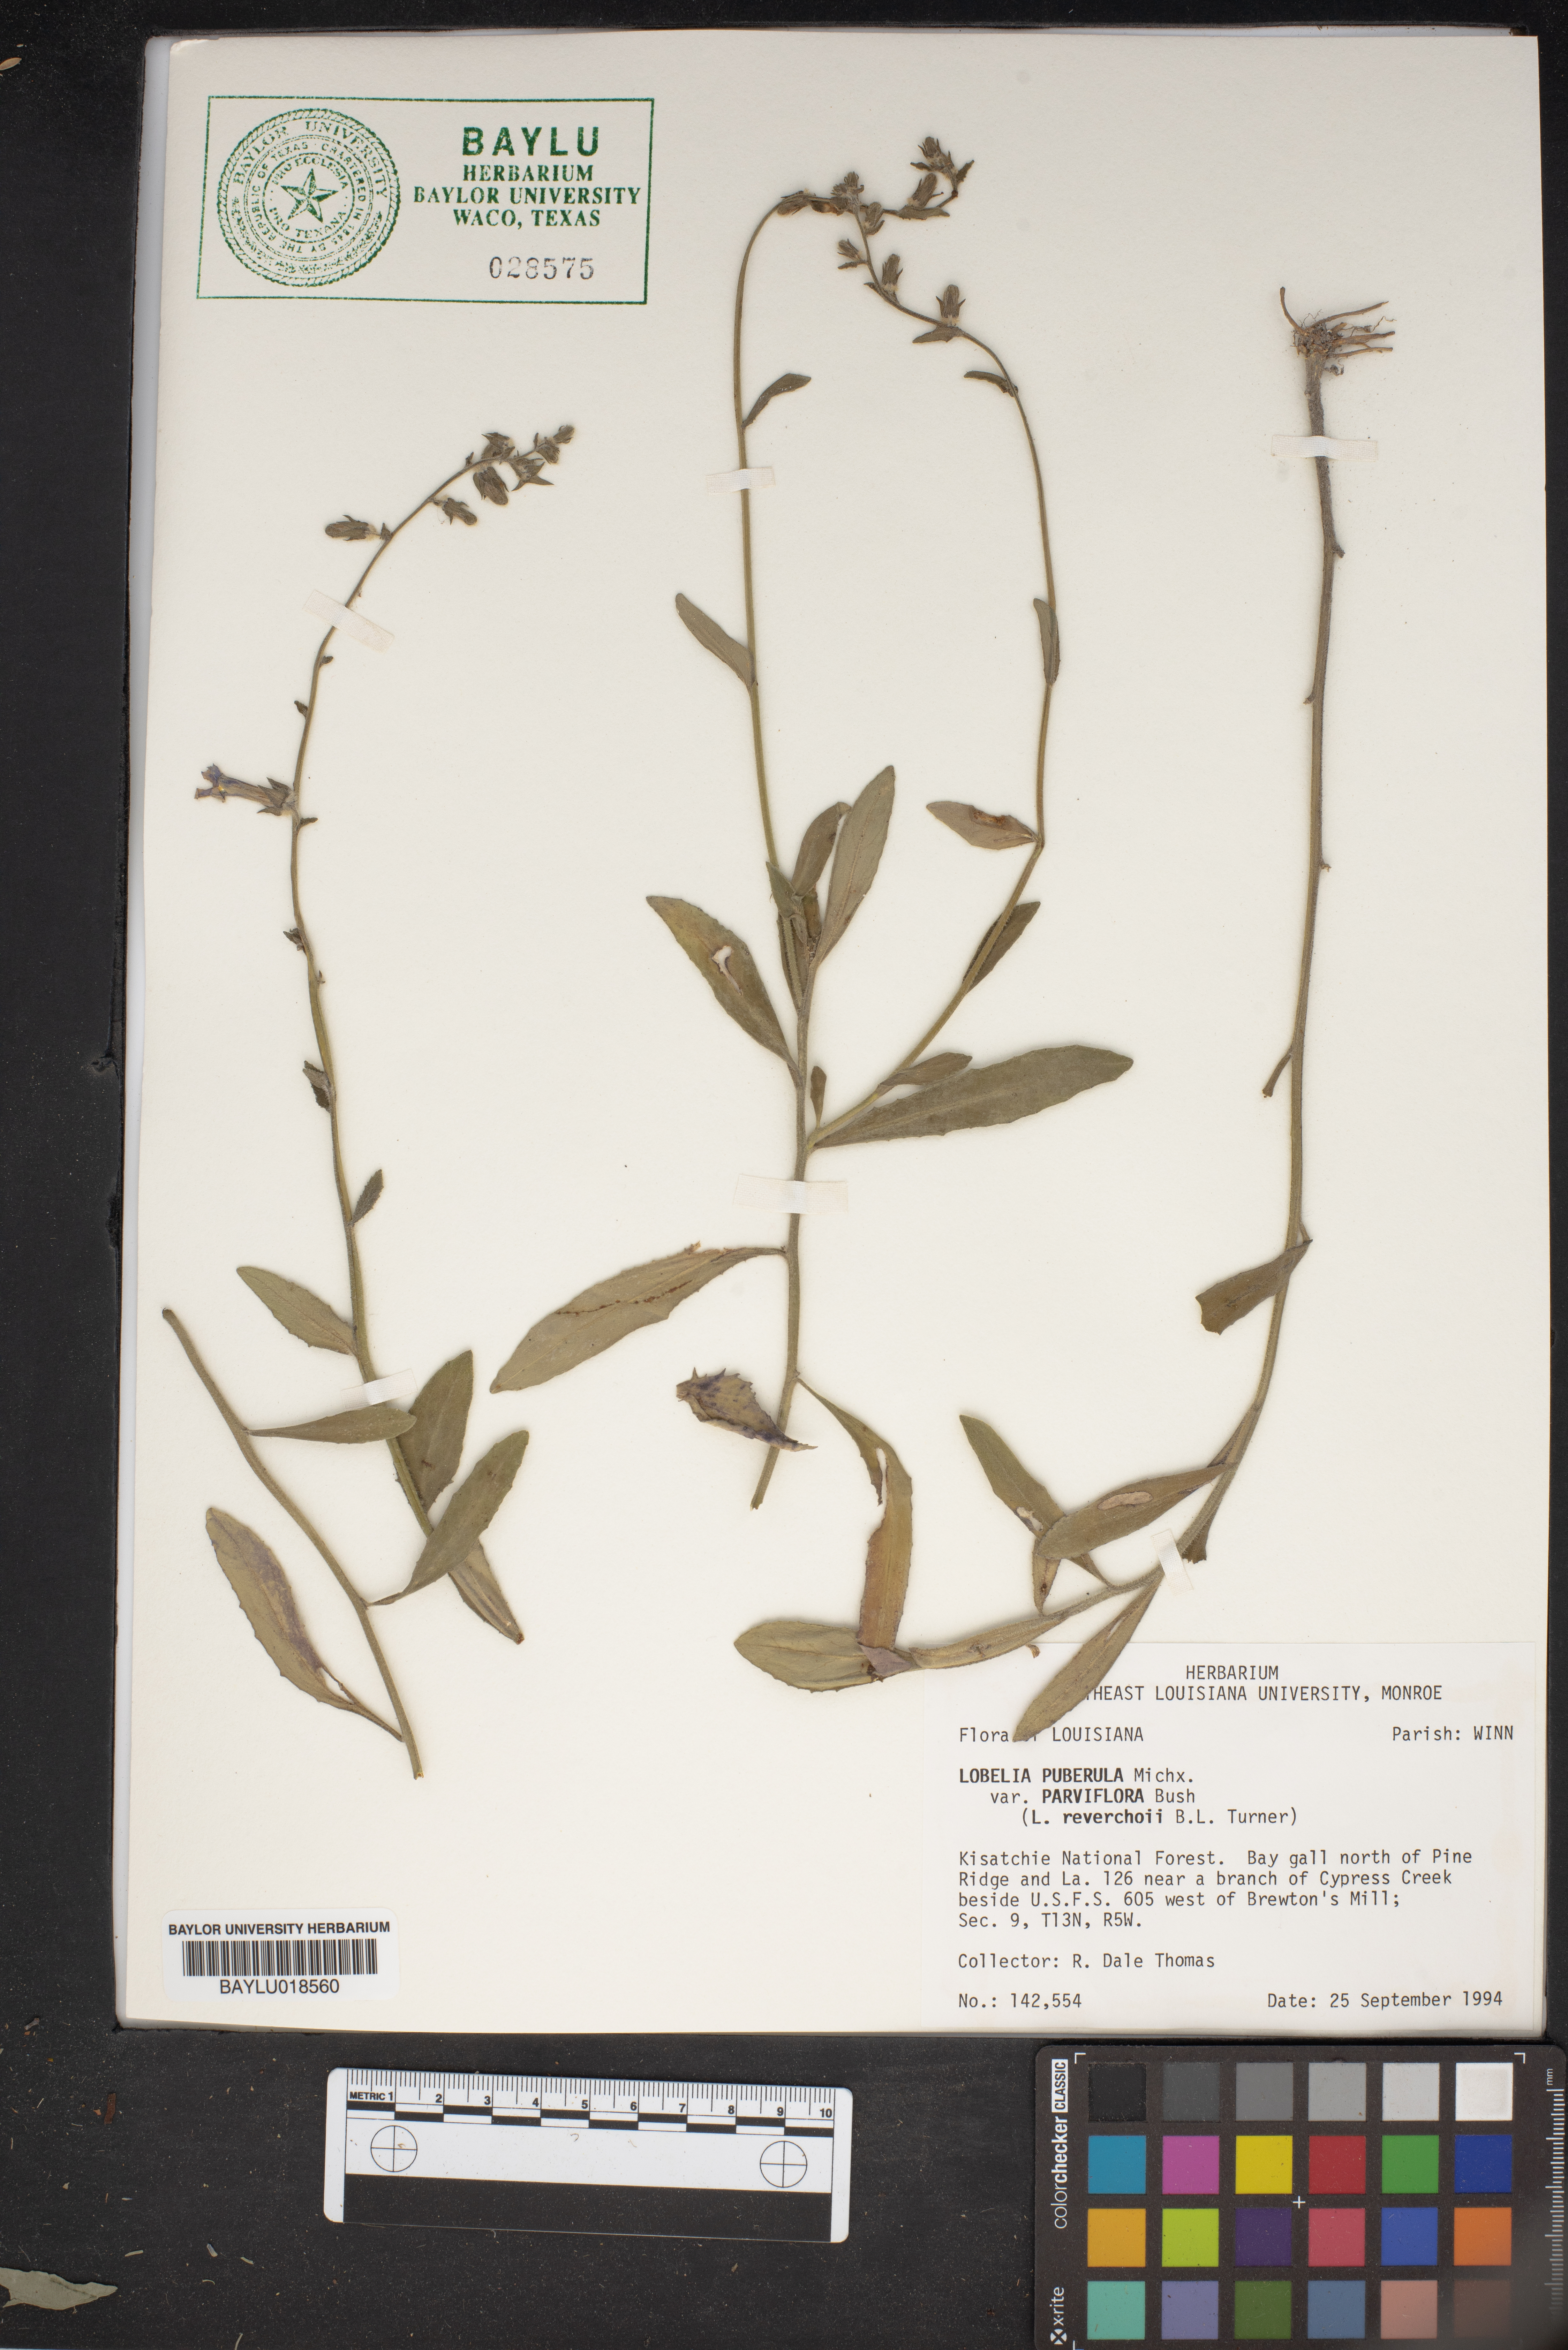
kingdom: Plantae
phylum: Tracheophyta
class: Magnoliopsida
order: Asterales
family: Campanulaceae
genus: Lobelia
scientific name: Lobelia puberula
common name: Purple dewdrop
